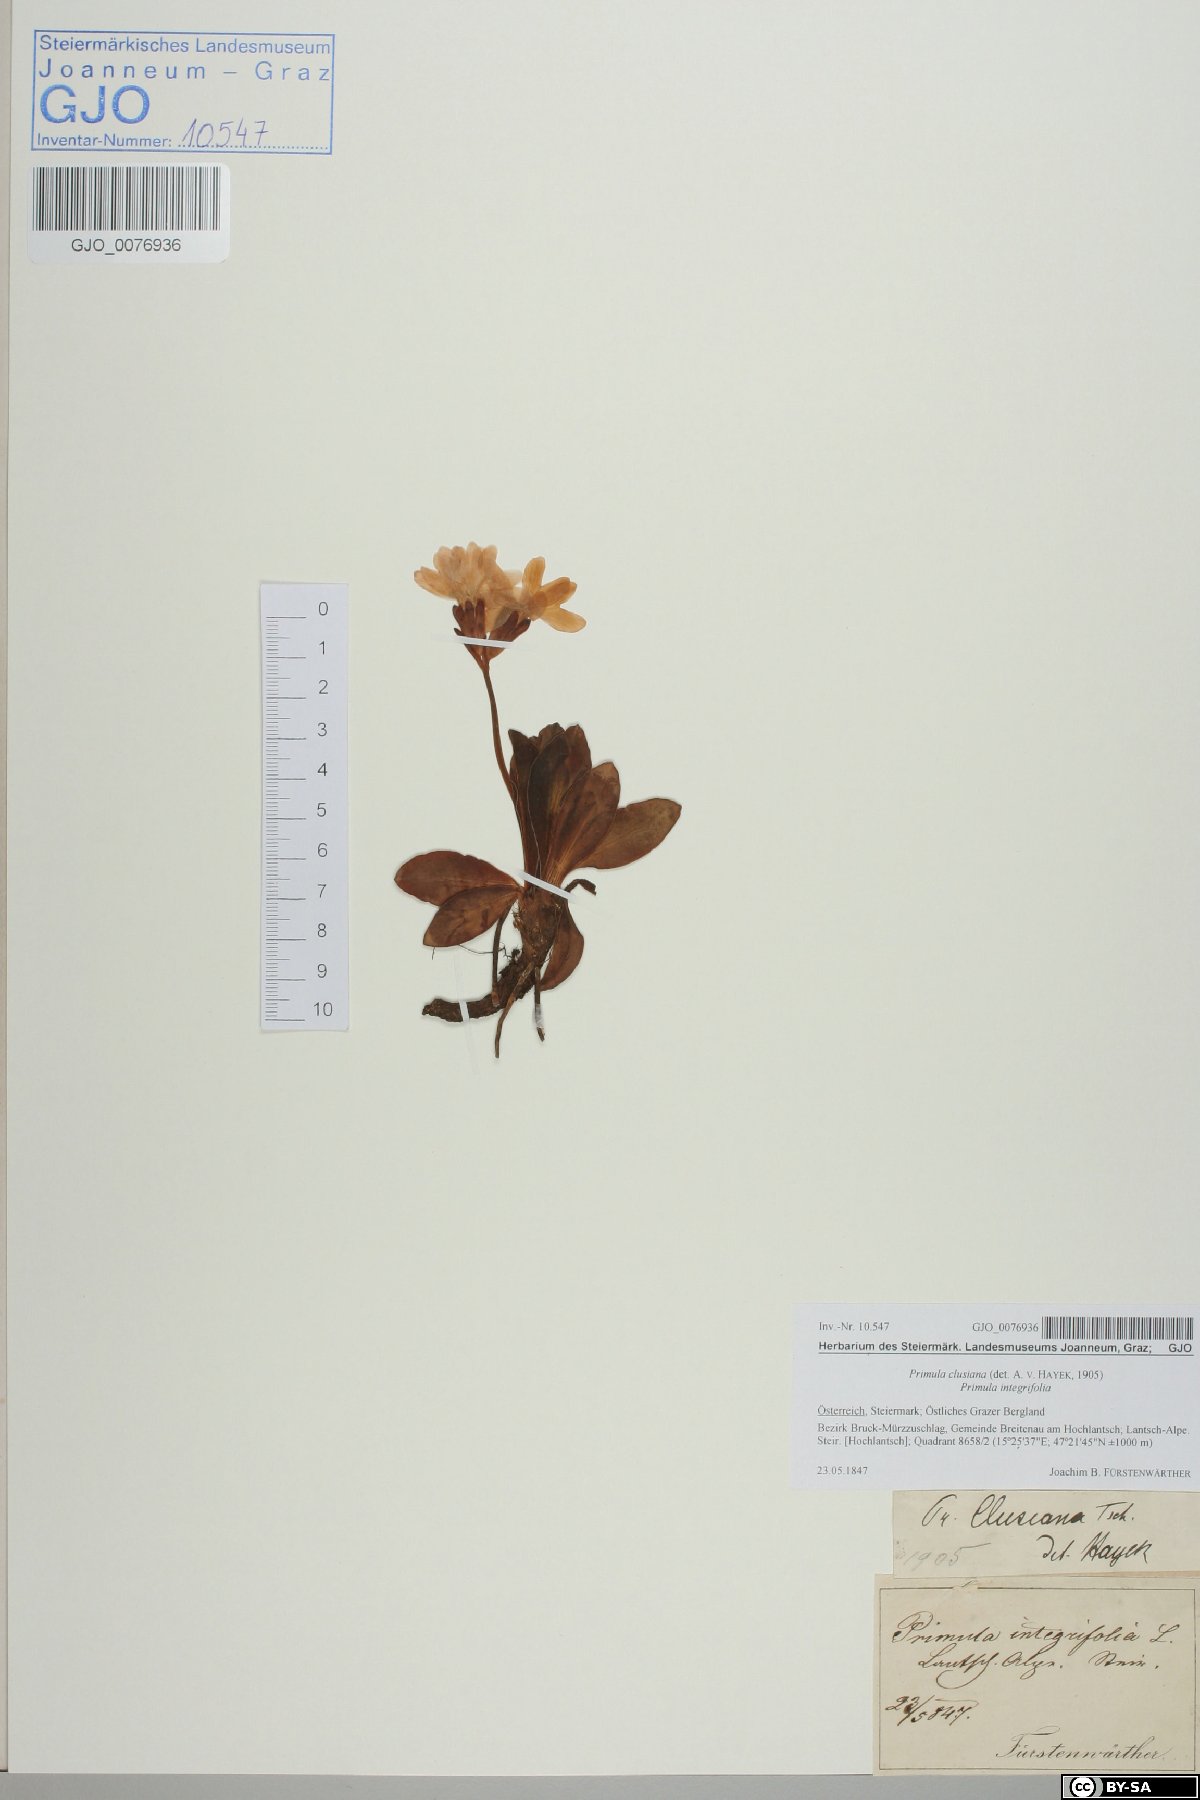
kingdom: Plantae
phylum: Tracheophyta
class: Magnoliopsida
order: Ericales
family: Primulaceae
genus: Primula
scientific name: Primula clusiana
